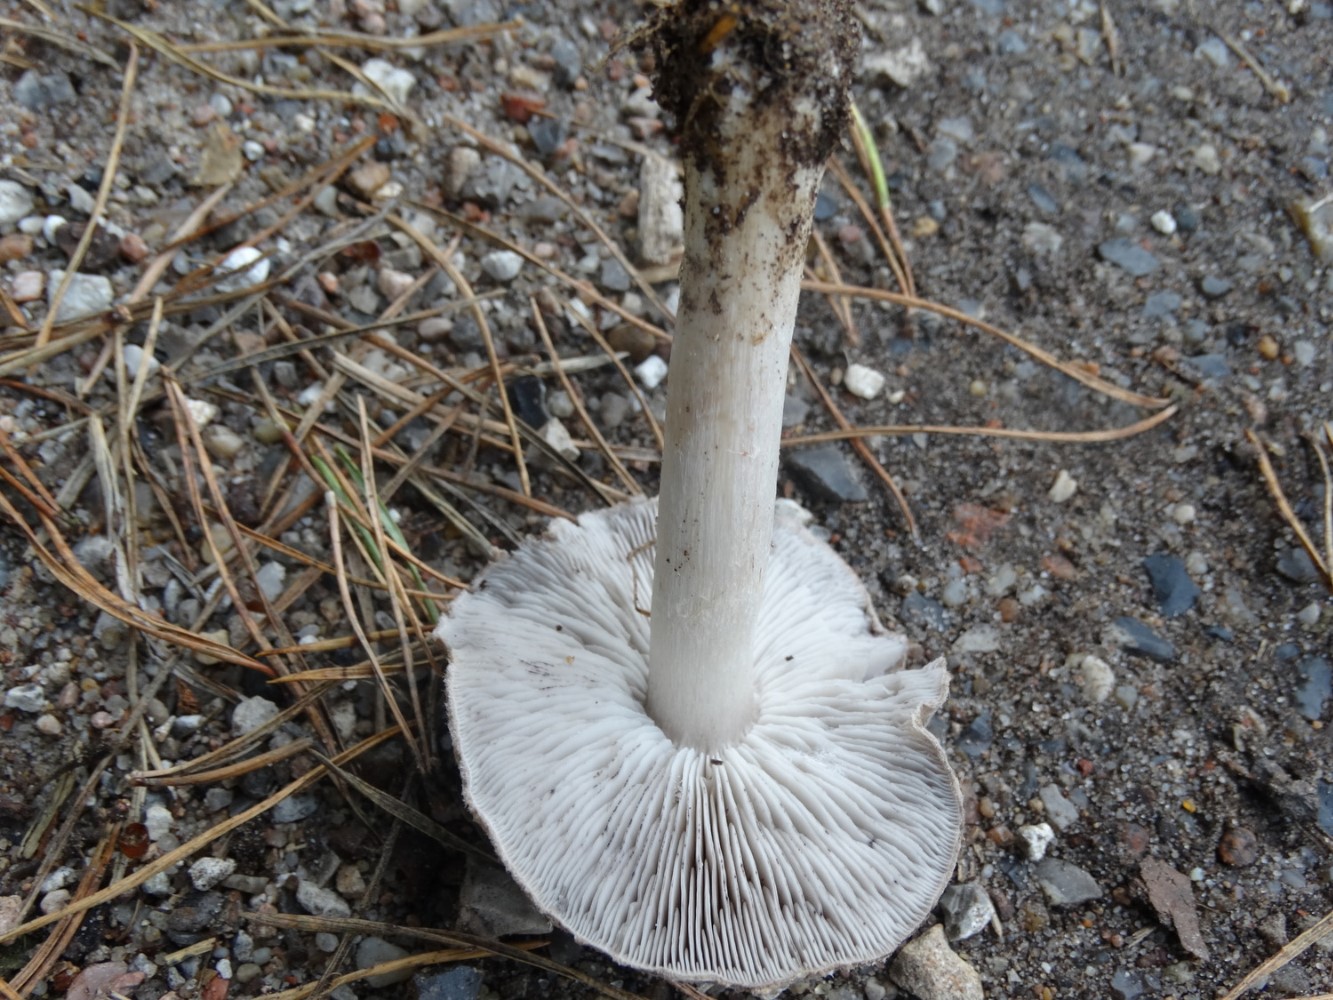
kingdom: Fungi
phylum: Basidiomycota
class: Agaricomycetes
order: Agaricales
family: Tricholomataceae
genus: Tricholoma
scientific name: Tricholoma terreum
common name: jordfarvet ridderhat
